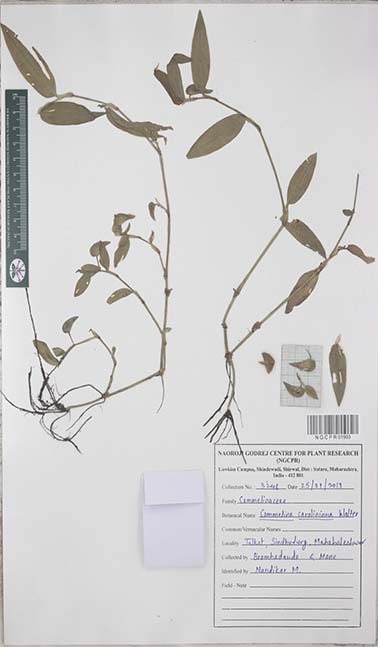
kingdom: Plantae
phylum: Tracheophyta
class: Liliopsida
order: Commelinales
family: Commelinaceae
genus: Commelina
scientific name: Commelina caroliniana
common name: Carolina dayflower
